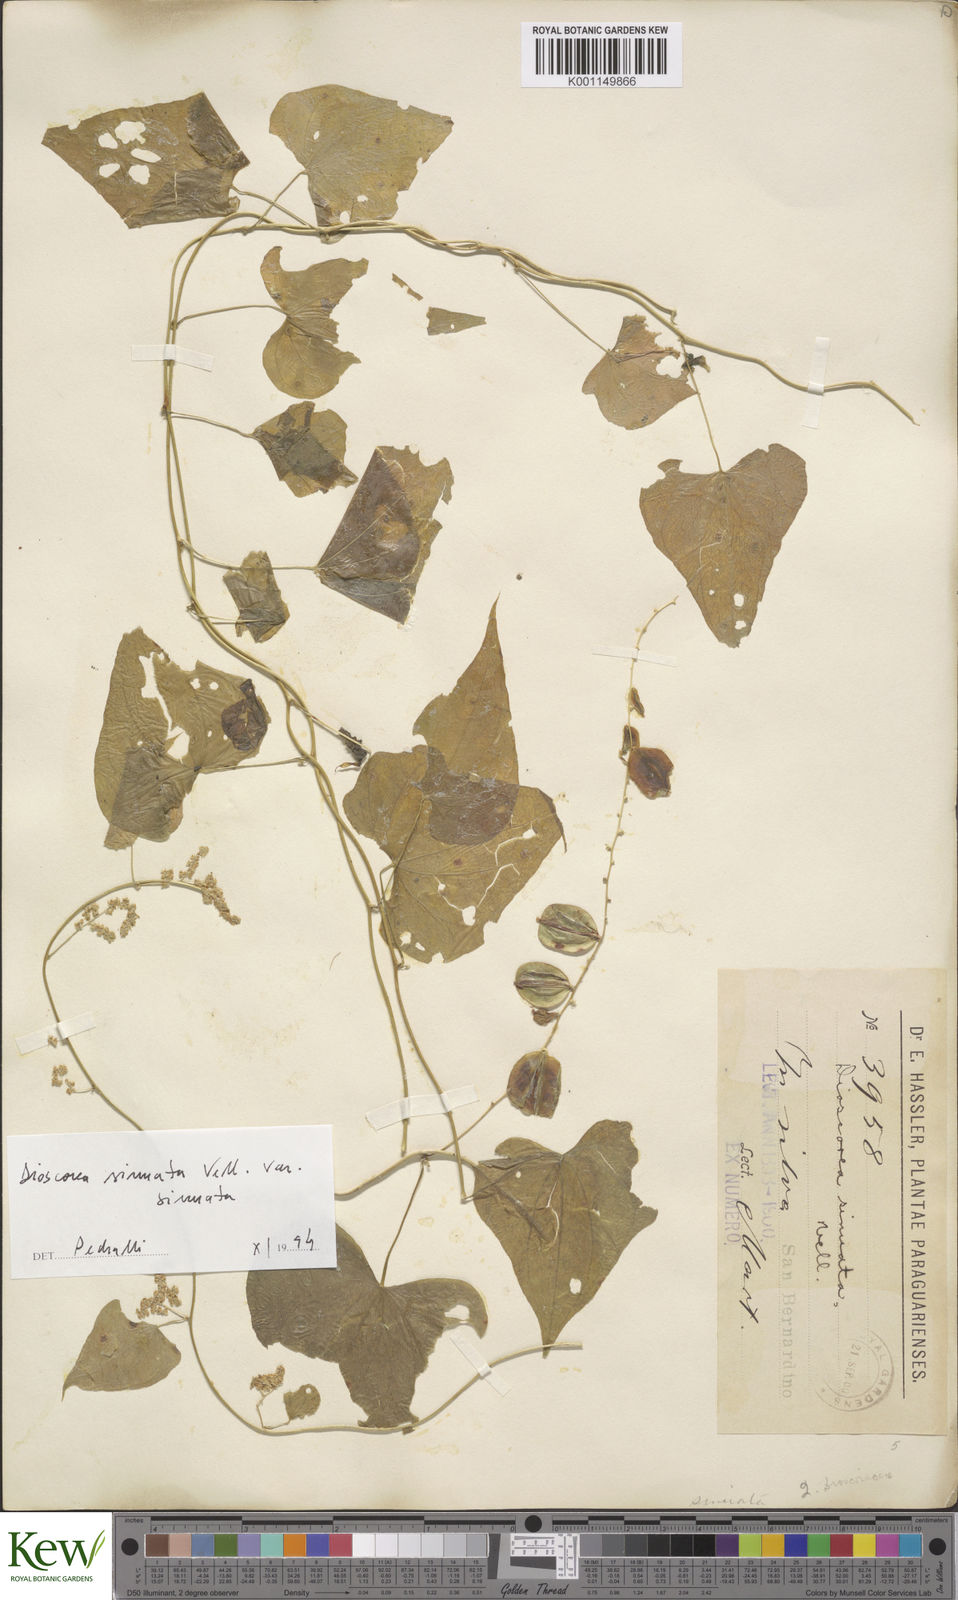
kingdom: Plantae
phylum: Tracheophyta
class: Liliopsida
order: Dioscoreales
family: Dioscoreaceae
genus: Dioscorea
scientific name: Dioscorea sinuata
